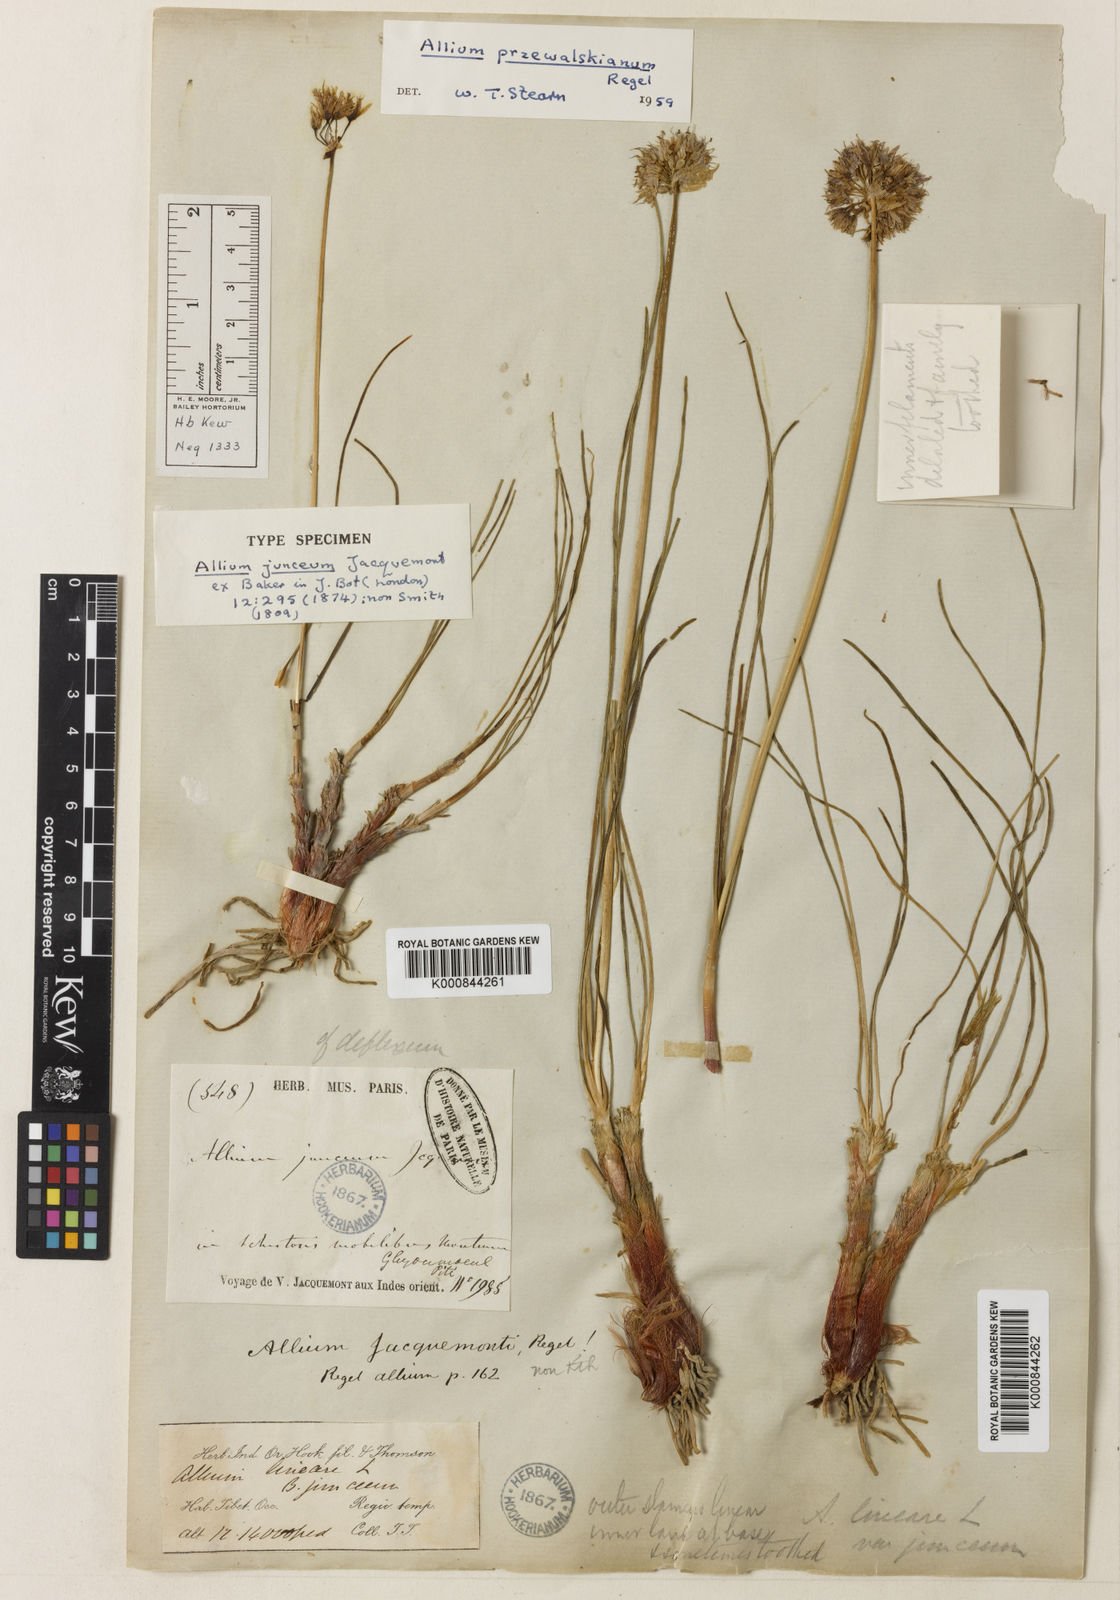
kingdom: Plantae
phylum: Tracheophyta
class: Liliopsida
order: Asparagales
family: Amaryllidaceae
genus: Allium
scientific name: Allium przewalskianum
